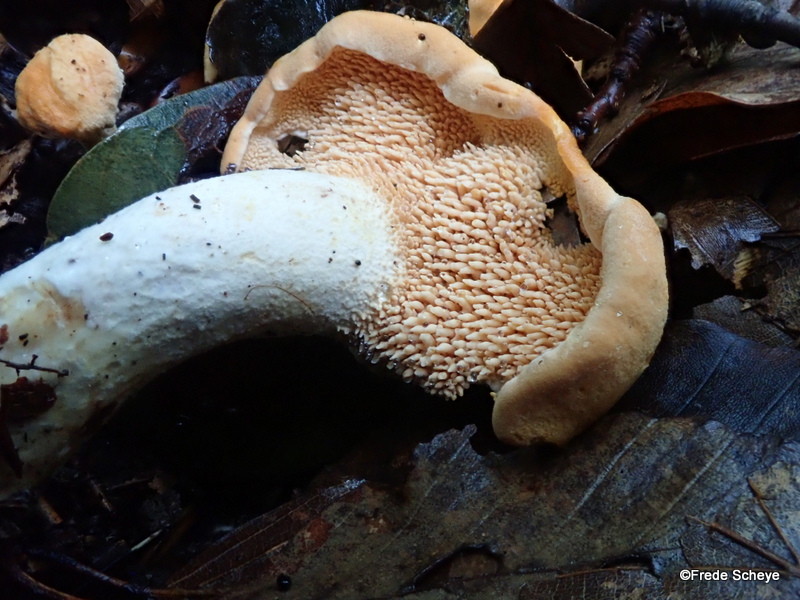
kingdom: Fungi
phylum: Basidiomycota
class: Agaricomycetes
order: Cantharellales
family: Hydnaceae
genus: Hydnum
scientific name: Hydnum repandum
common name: almindelig pigsvamp
